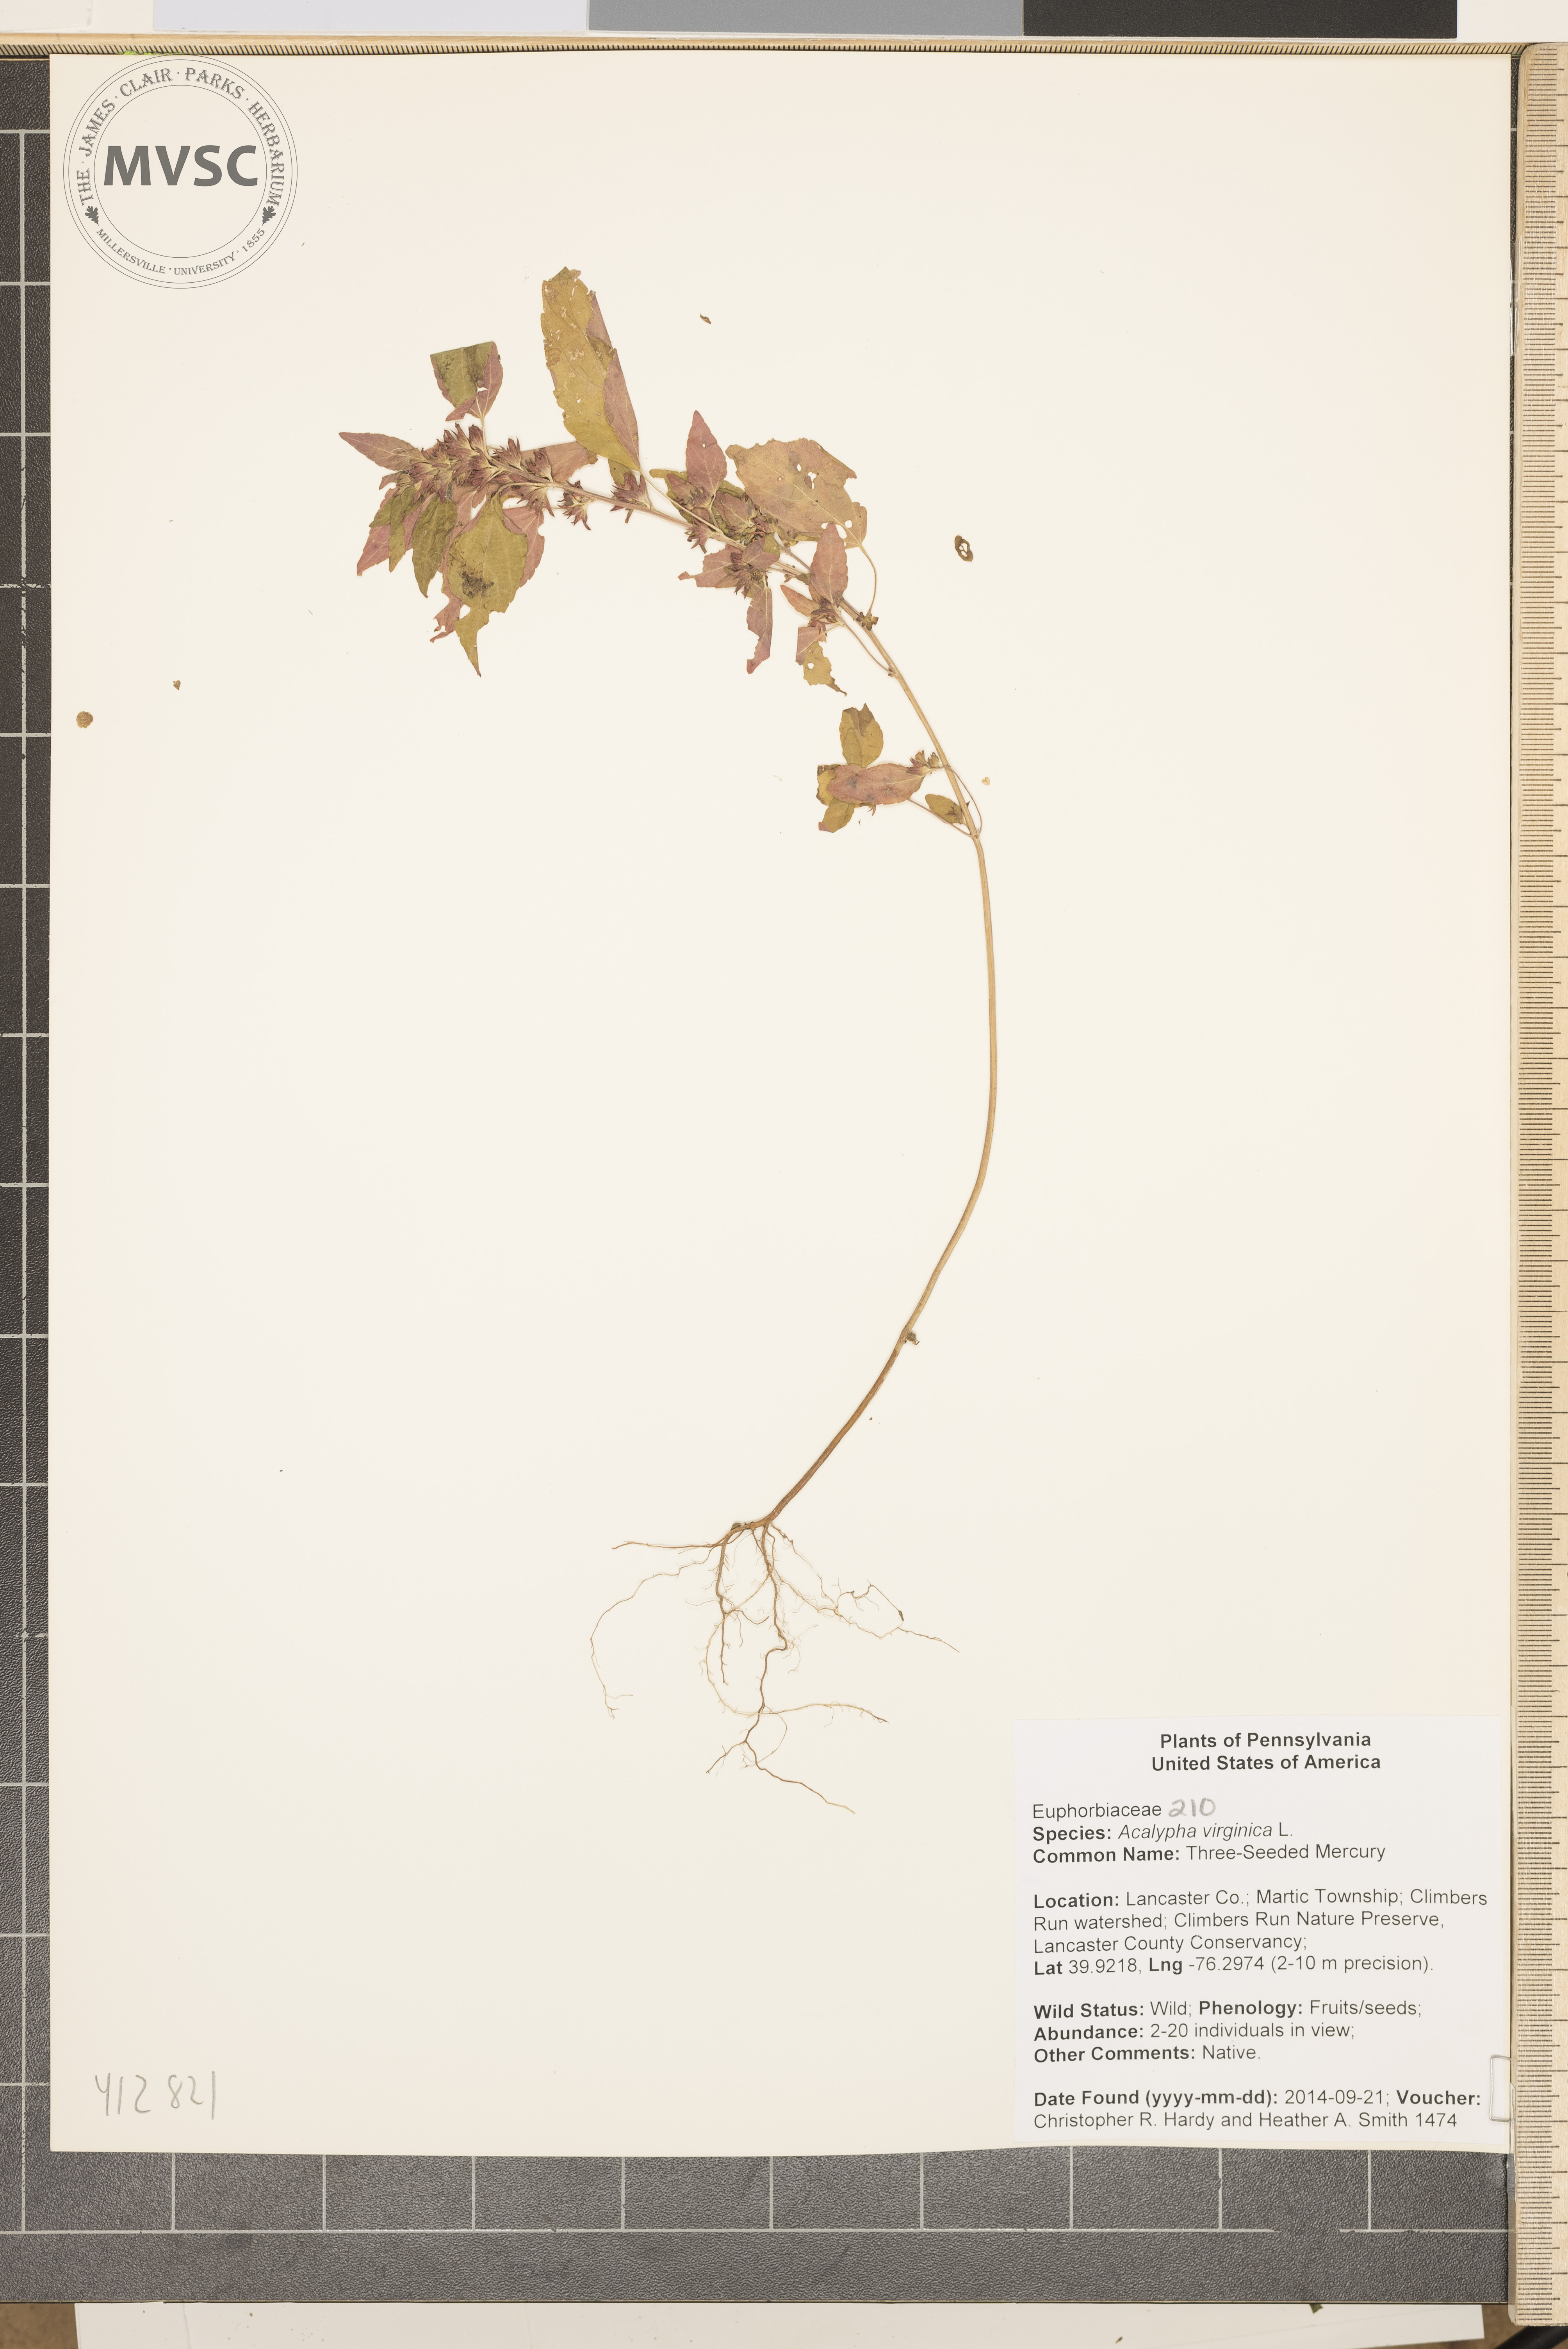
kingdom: Plantae
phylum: Tracheophyta
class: Magnoliopsida
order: Malpighiales
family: Euphorbiaceae
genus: Acalypha
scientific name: Acalypha virginica
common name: three-seeded mercury
